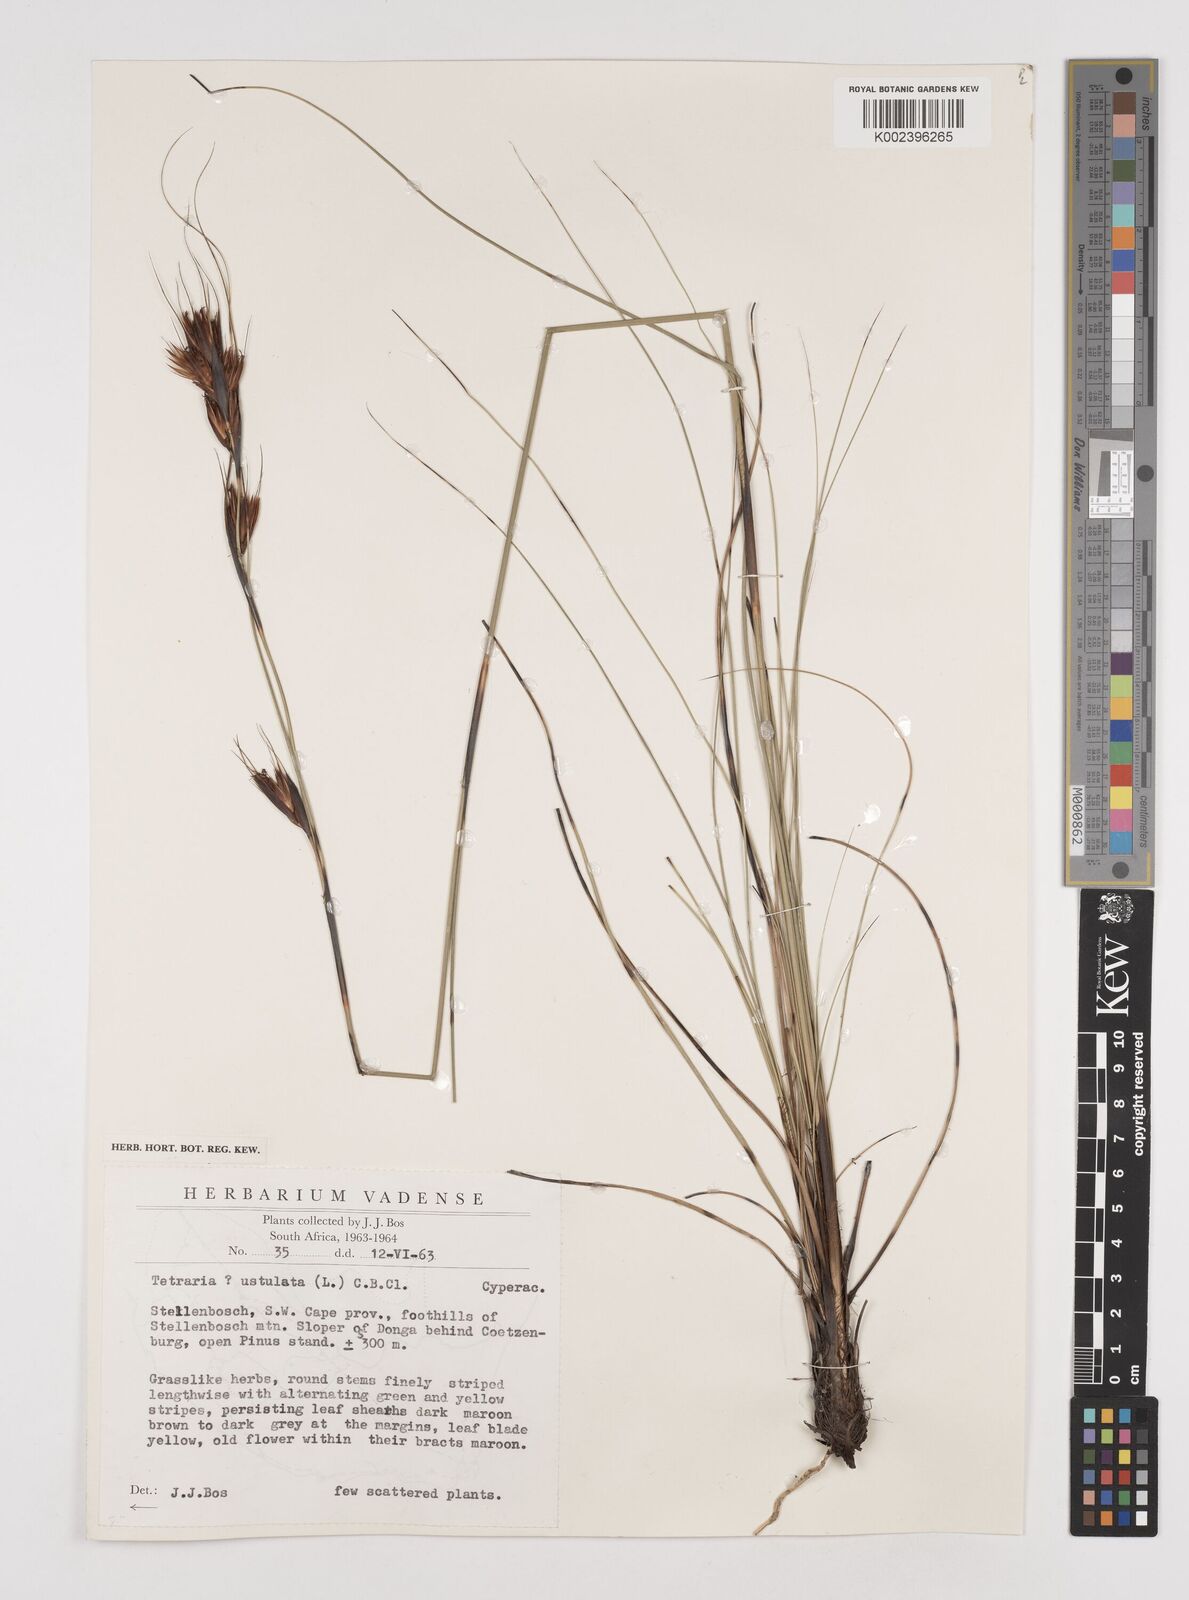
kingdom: Plantae
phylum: Tracheophyta
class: Liliopsida
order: Poales
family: Cyperaceae
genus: Tetraria
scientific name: Tetraria ustulata
